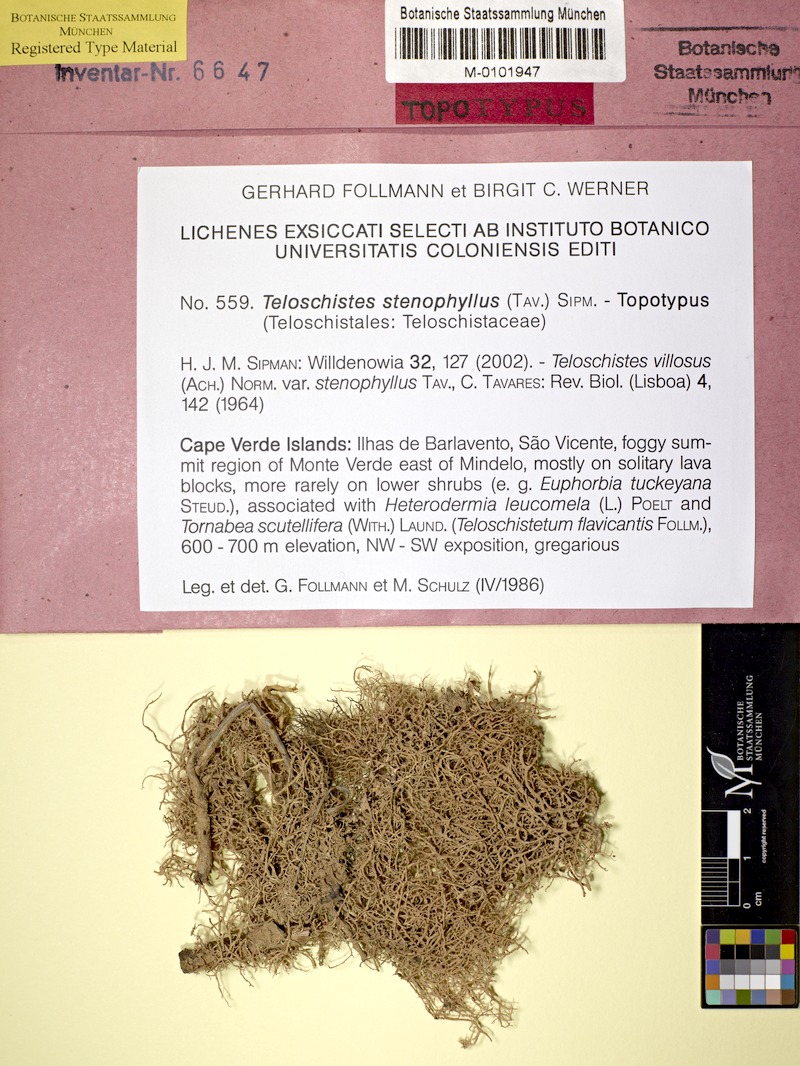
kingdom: Fungi
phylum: Ascomycota
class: Lecanoromycetes
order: Teloschistales
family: Teloschistaceae
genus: Seirophora
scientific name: Seirophora stenophylla
